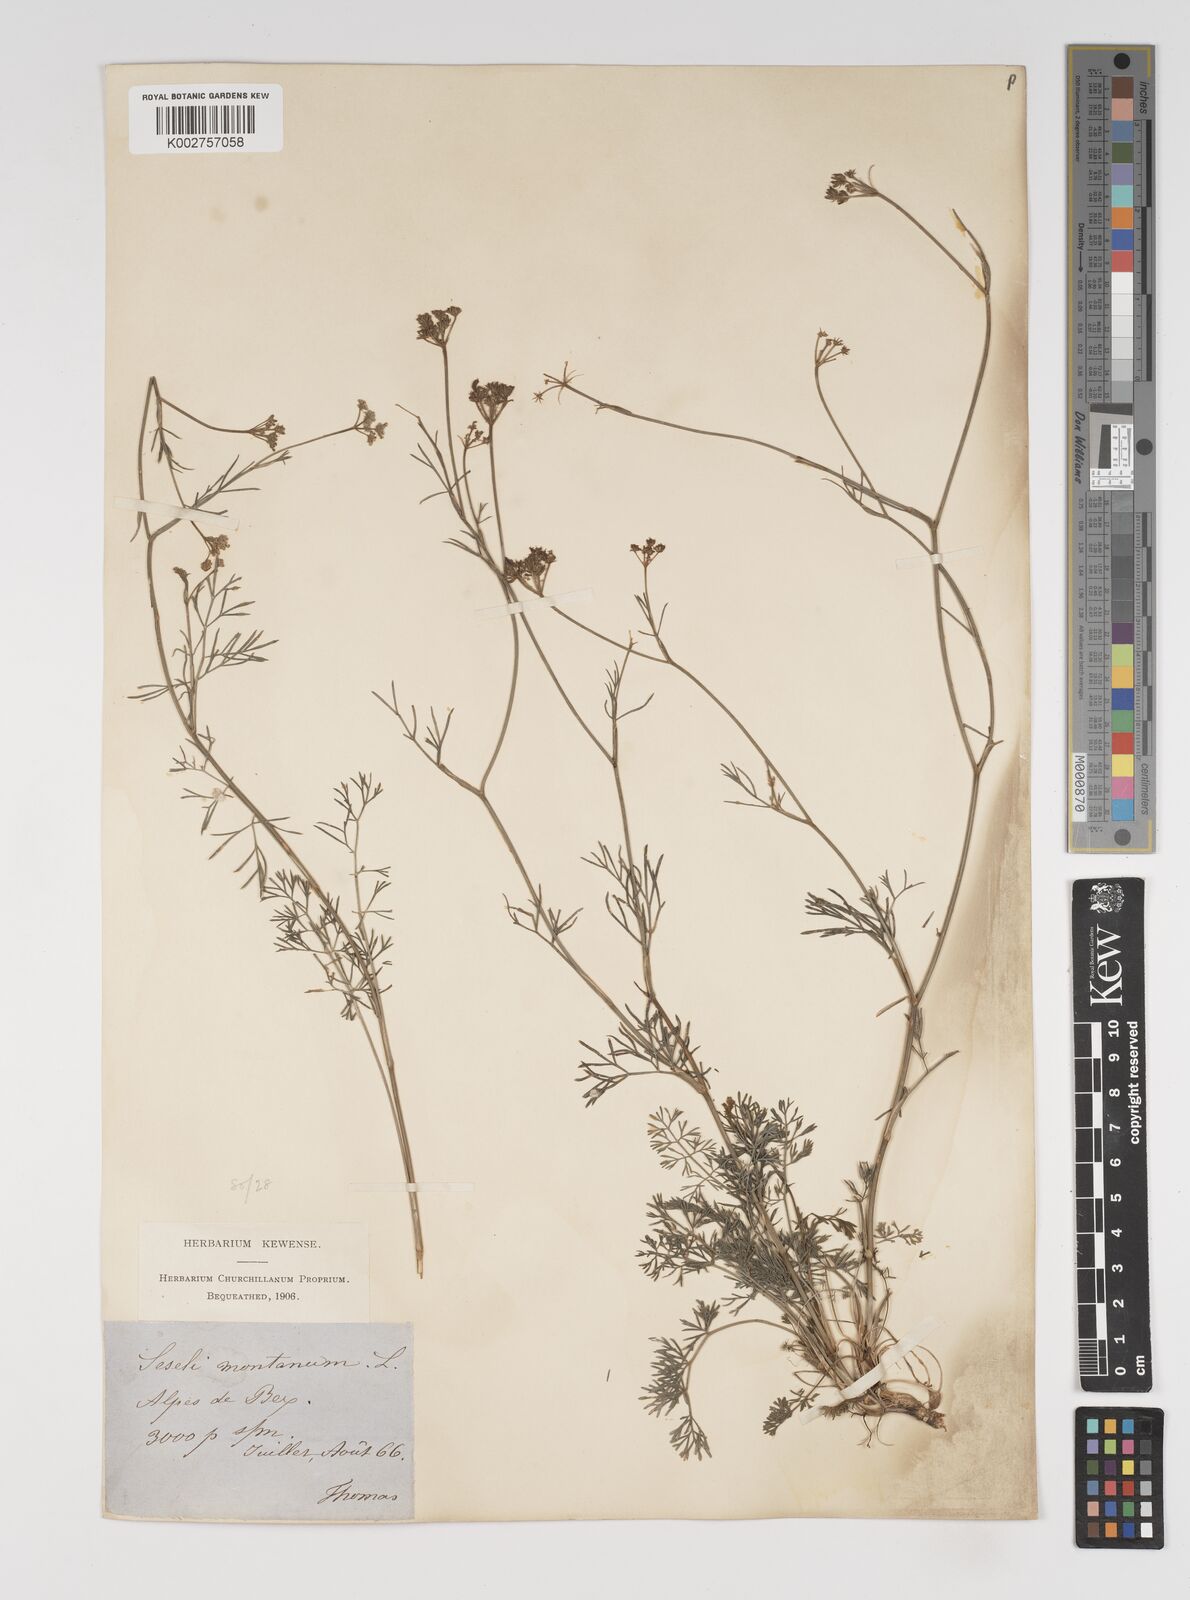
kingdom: Plantae
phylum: Tracheophyta
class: Magnoliopsida
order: Apiales
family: Apiaceae
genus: Seseli
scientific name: Seseli montanum
